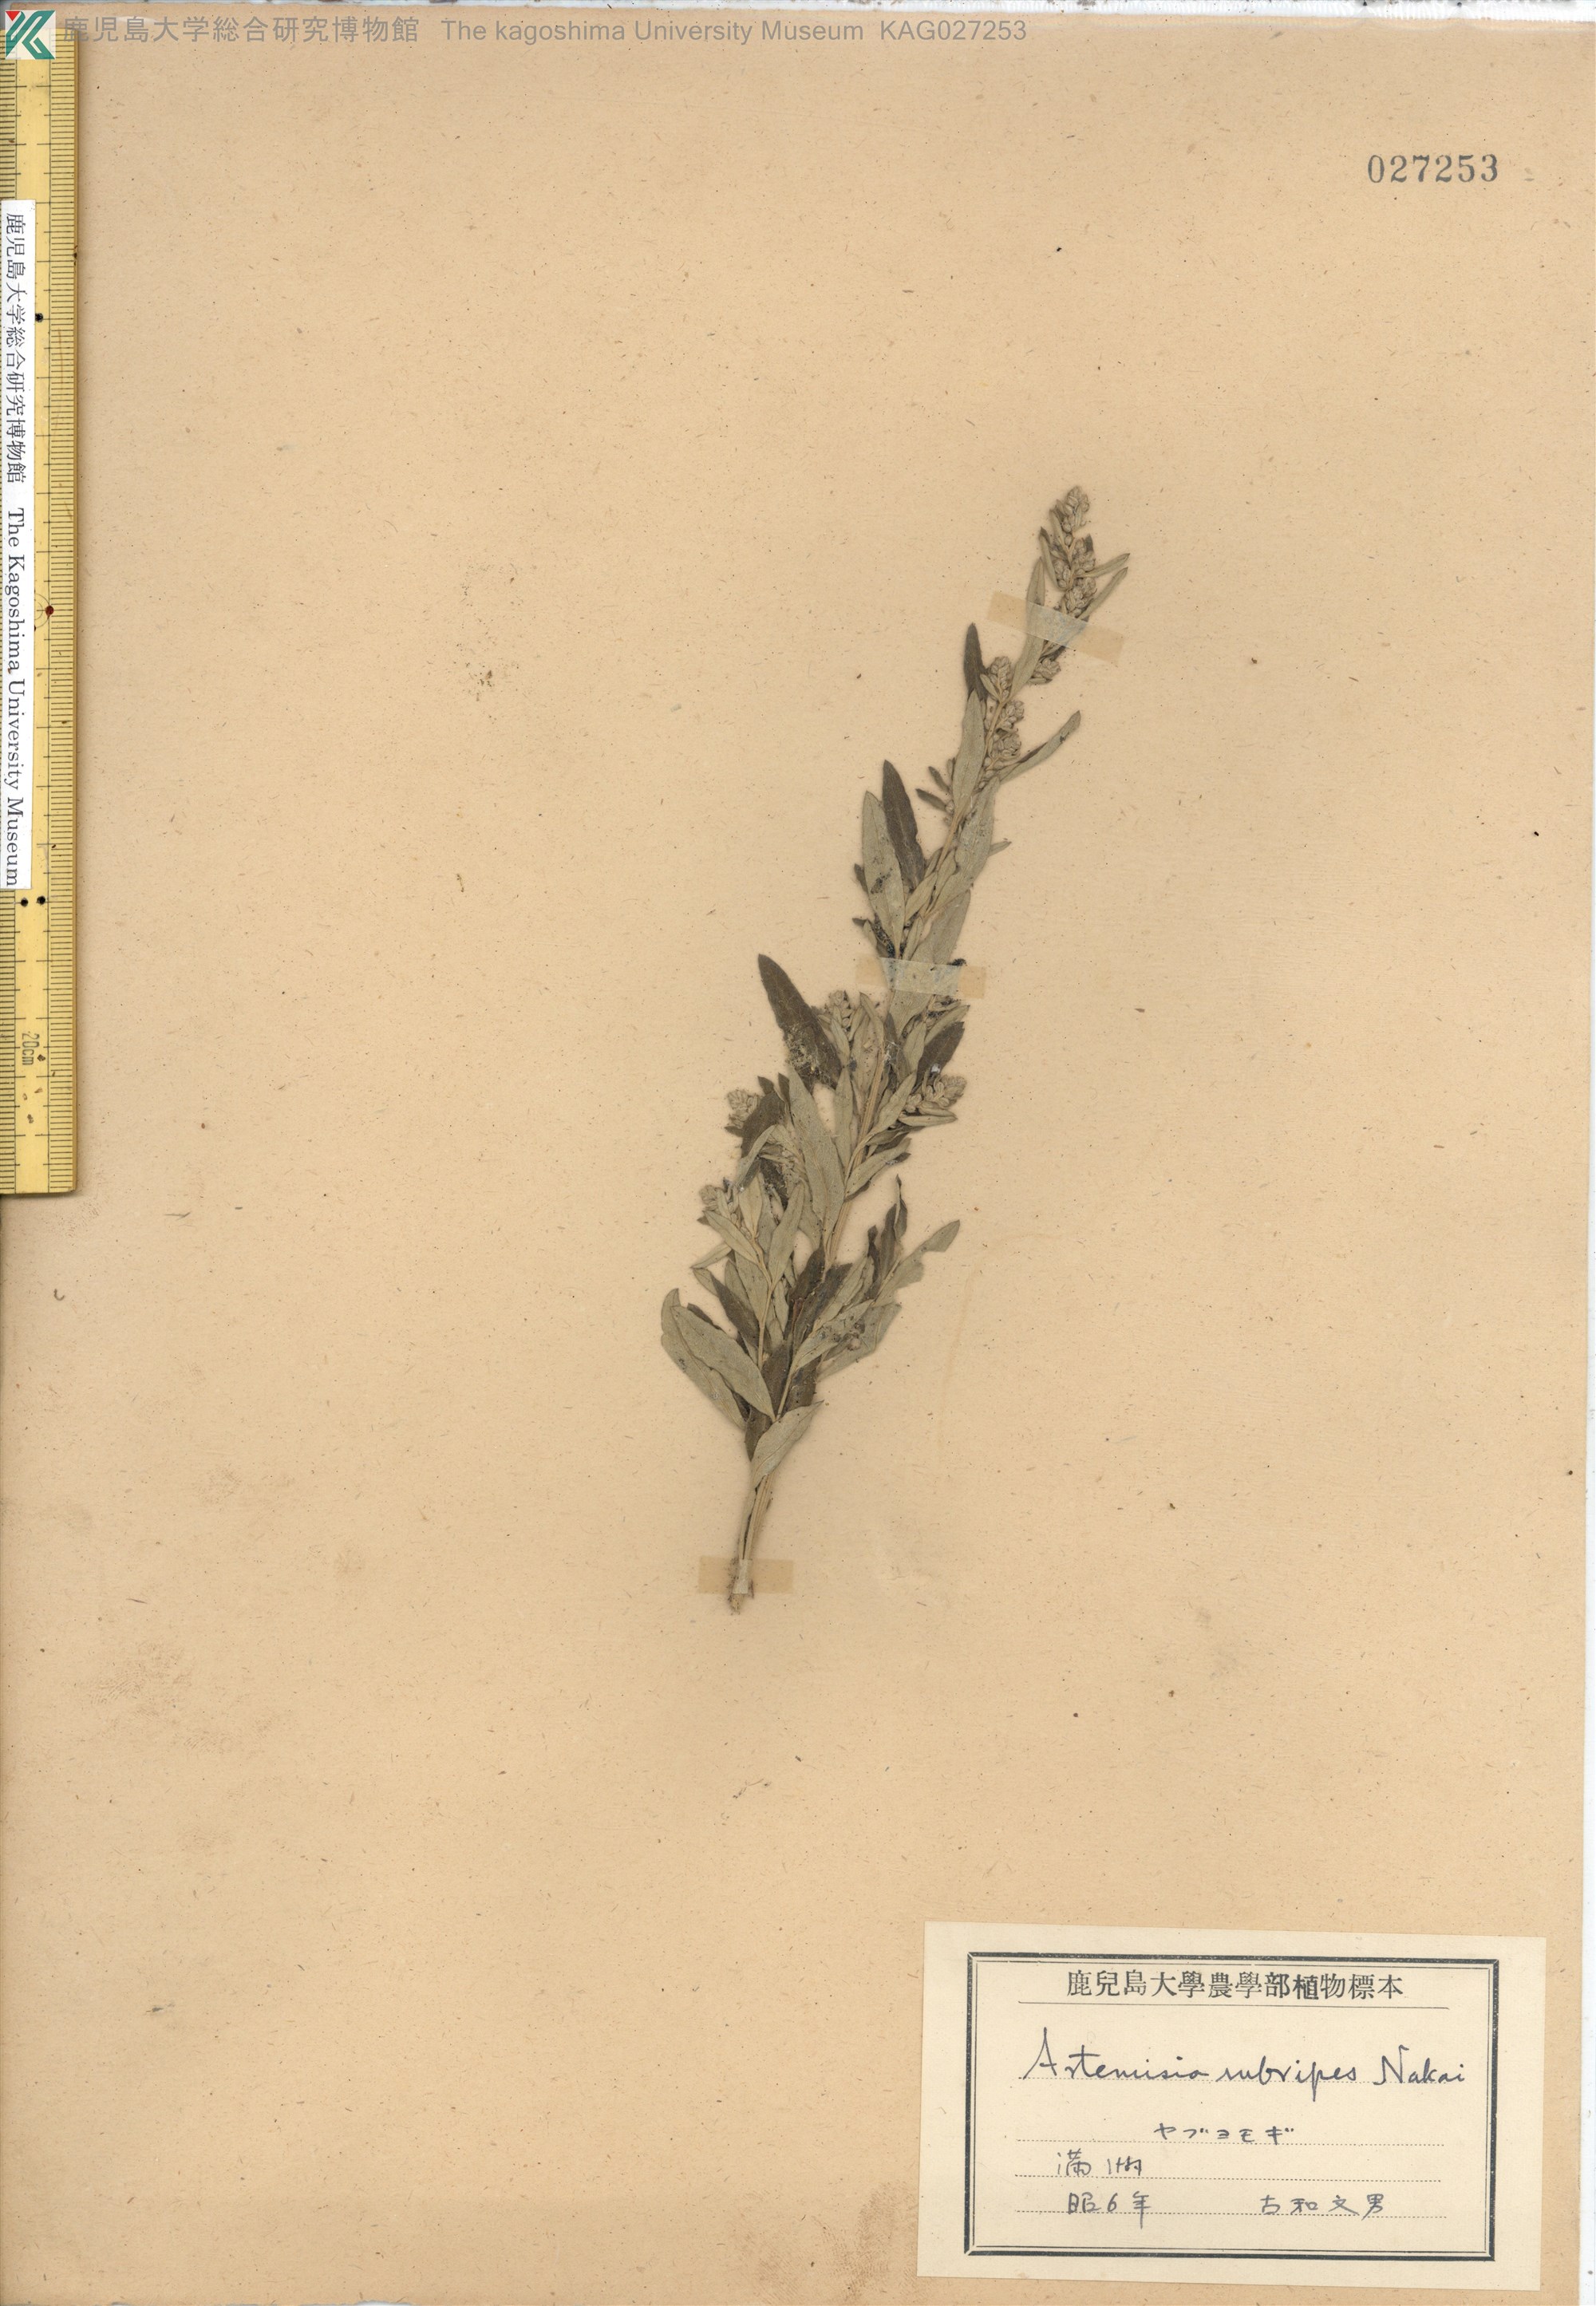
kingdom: Plantae
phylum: Tracheophyta
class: Magnoliopsida
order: Asterales
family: Asteraceae
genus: Artemisia
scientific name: Artemisia rubripes
